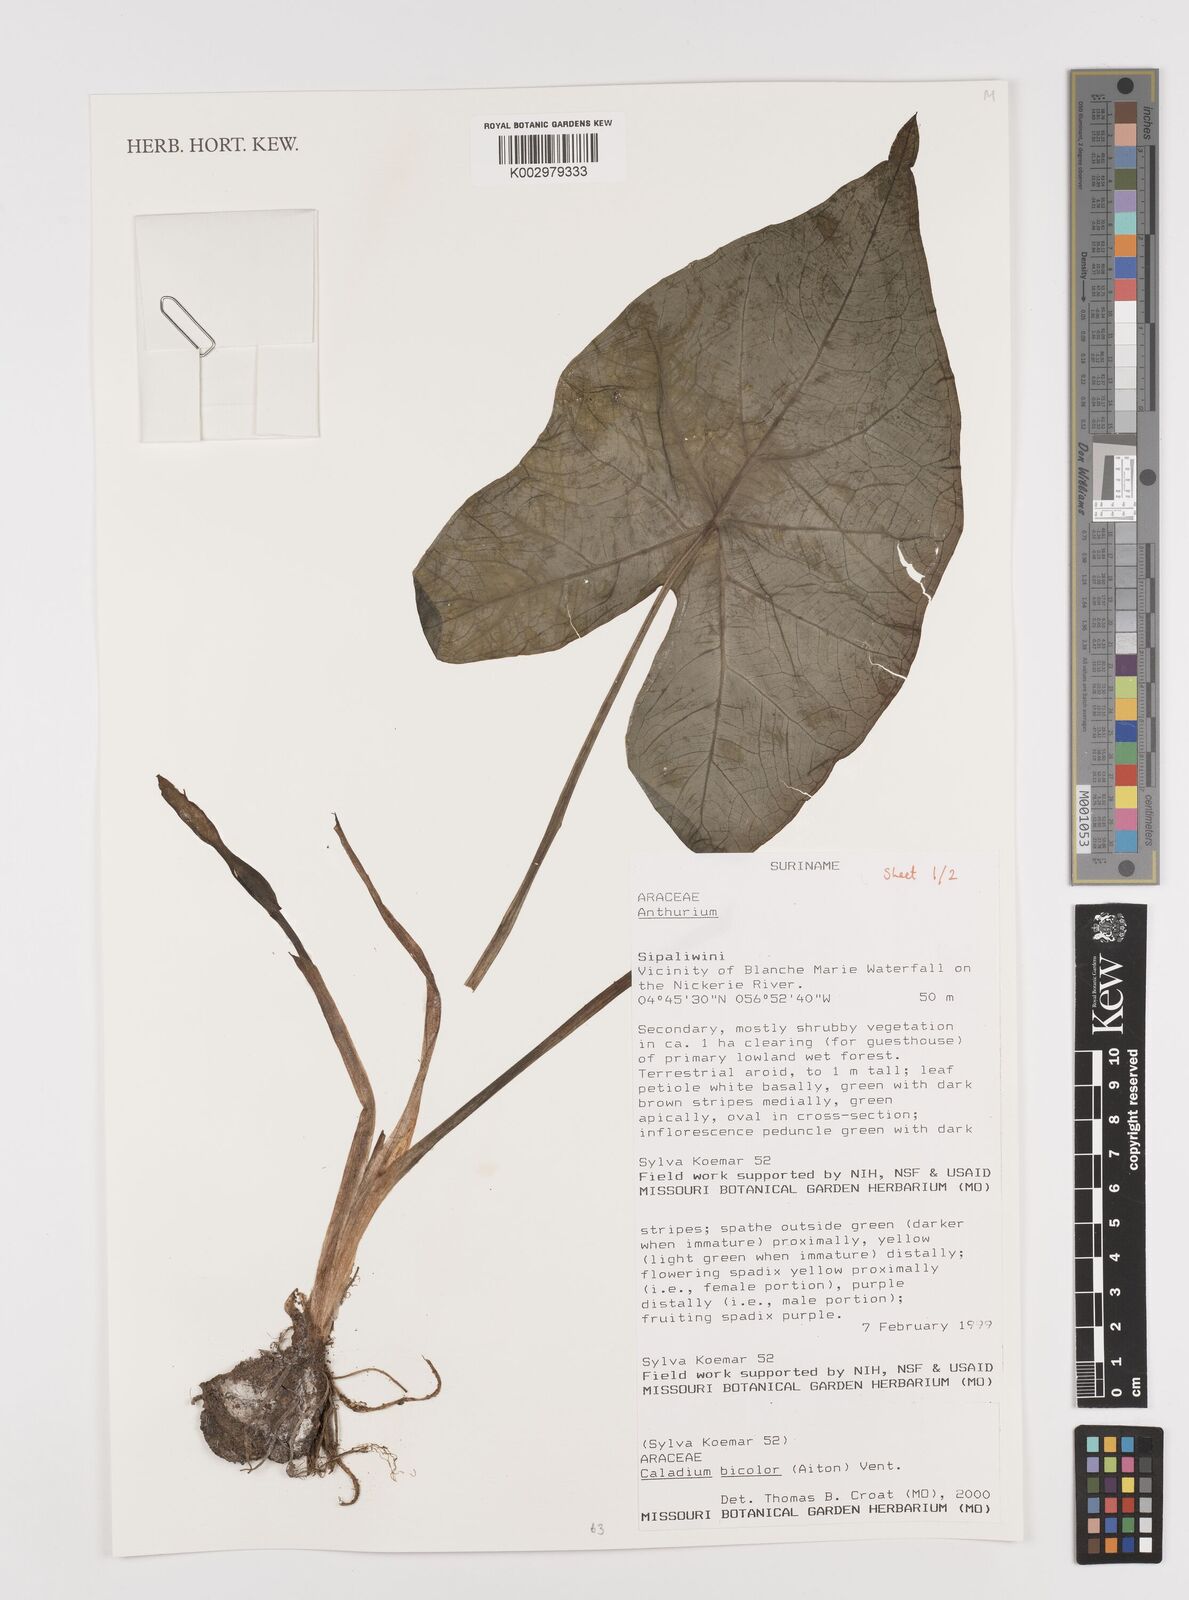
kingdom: Plantae
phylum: Tracheophyta
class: Liliopsida
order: Alismatales
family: Araceae
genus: Xanthosoma
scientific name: Xanthosoma poecile
